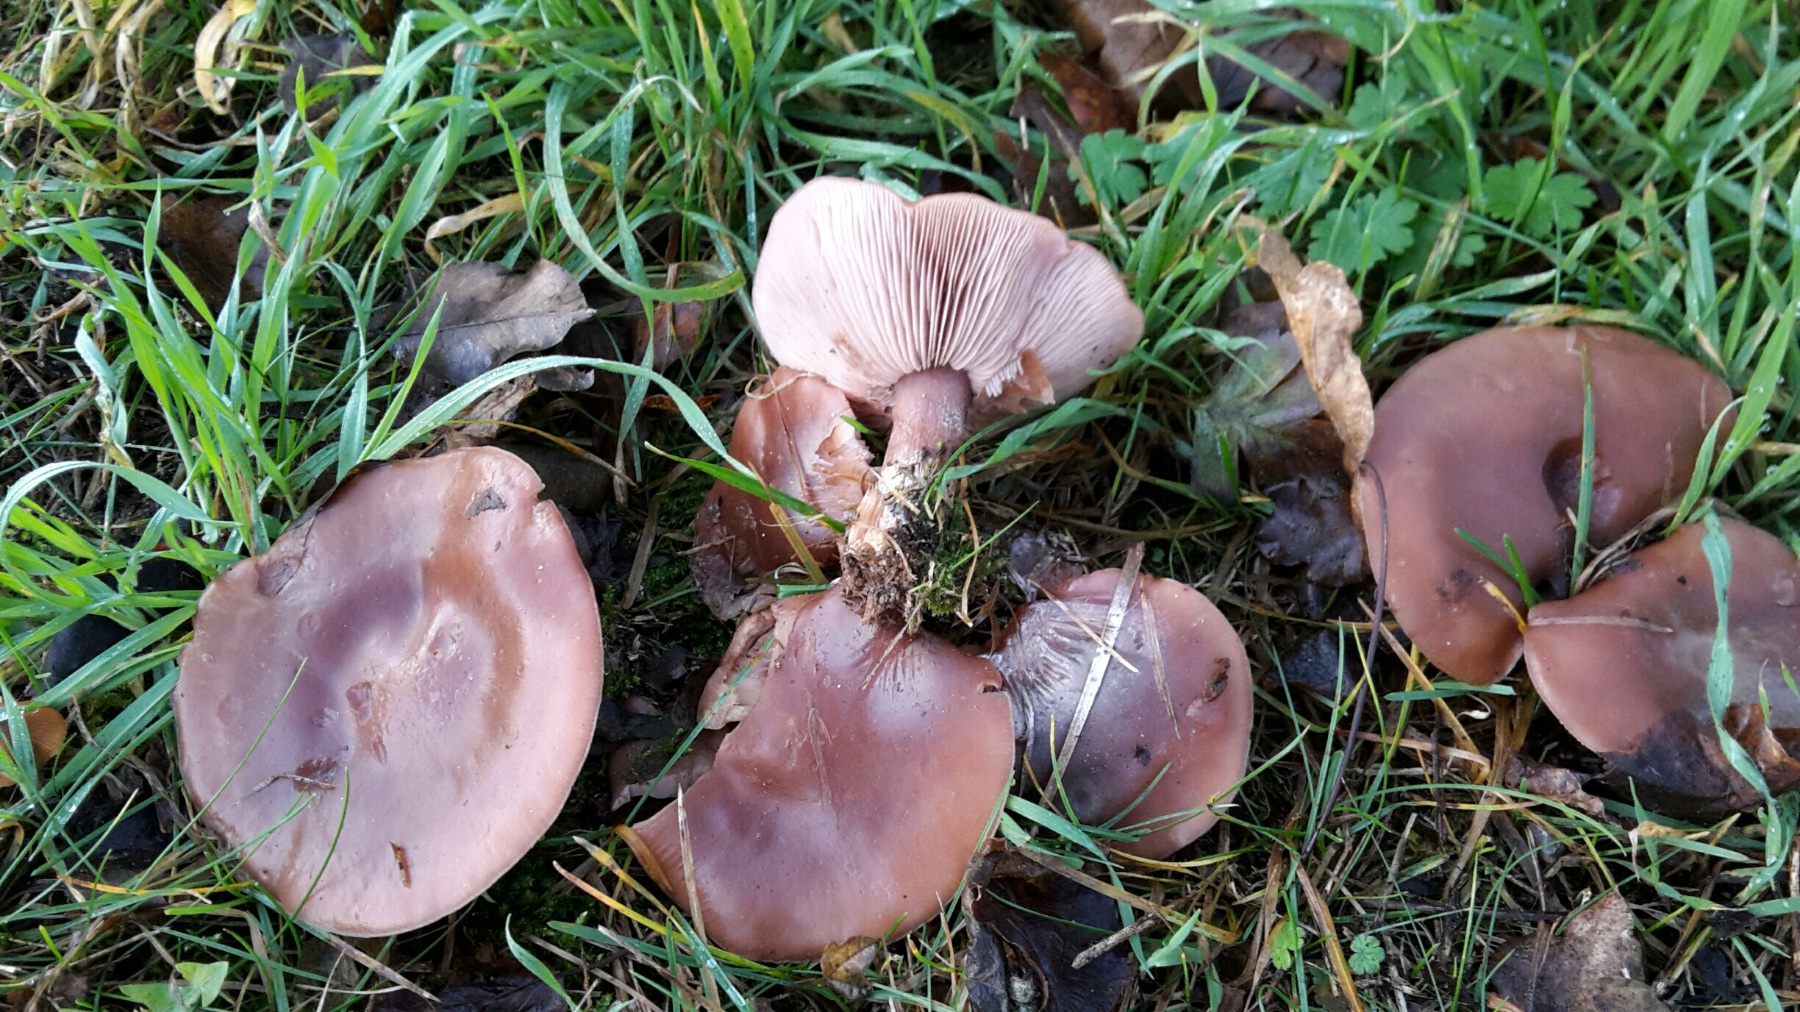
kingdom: Fungi
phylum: Basidiomycota
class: Agaricomycetes
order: Agaricales
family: Tricholomataceae
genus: Lepista
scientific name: Lepista nuda
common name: violet hekseringshat
